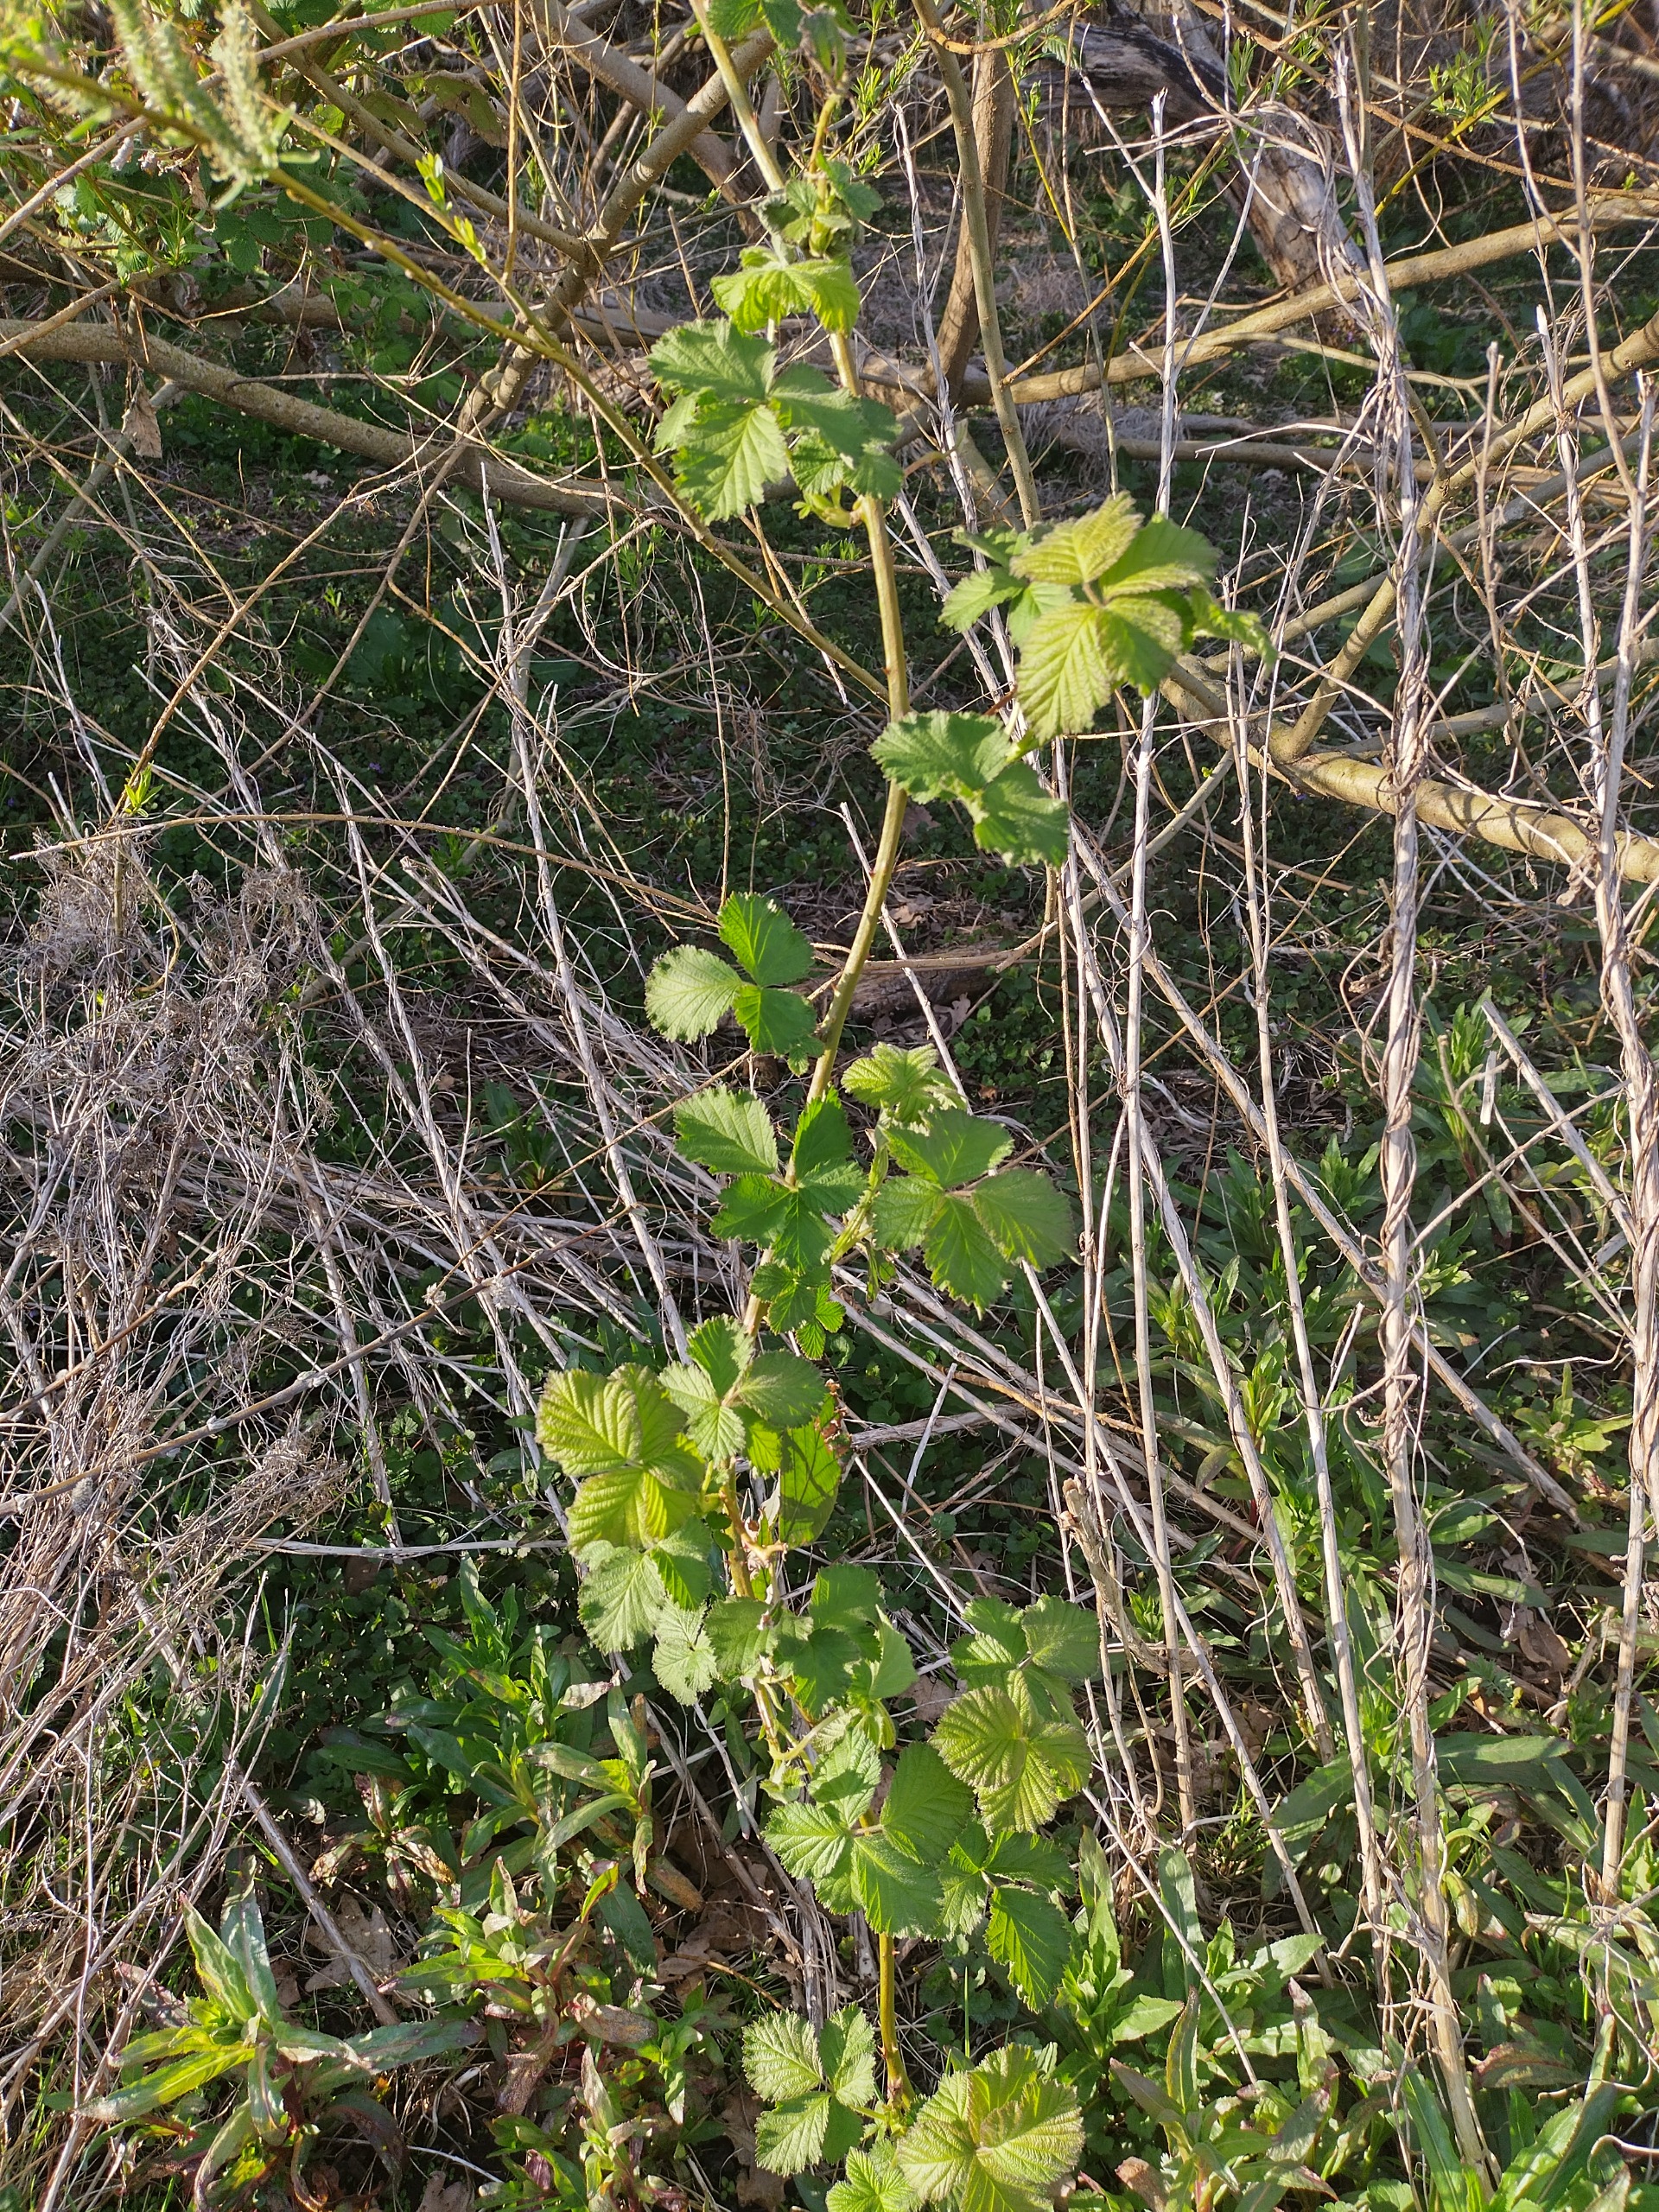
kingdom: Plantae
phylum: Tracheophyta
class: Magnoliopsida
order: Rosales
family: Rosaceae
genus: Rubus
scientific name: Rubus
